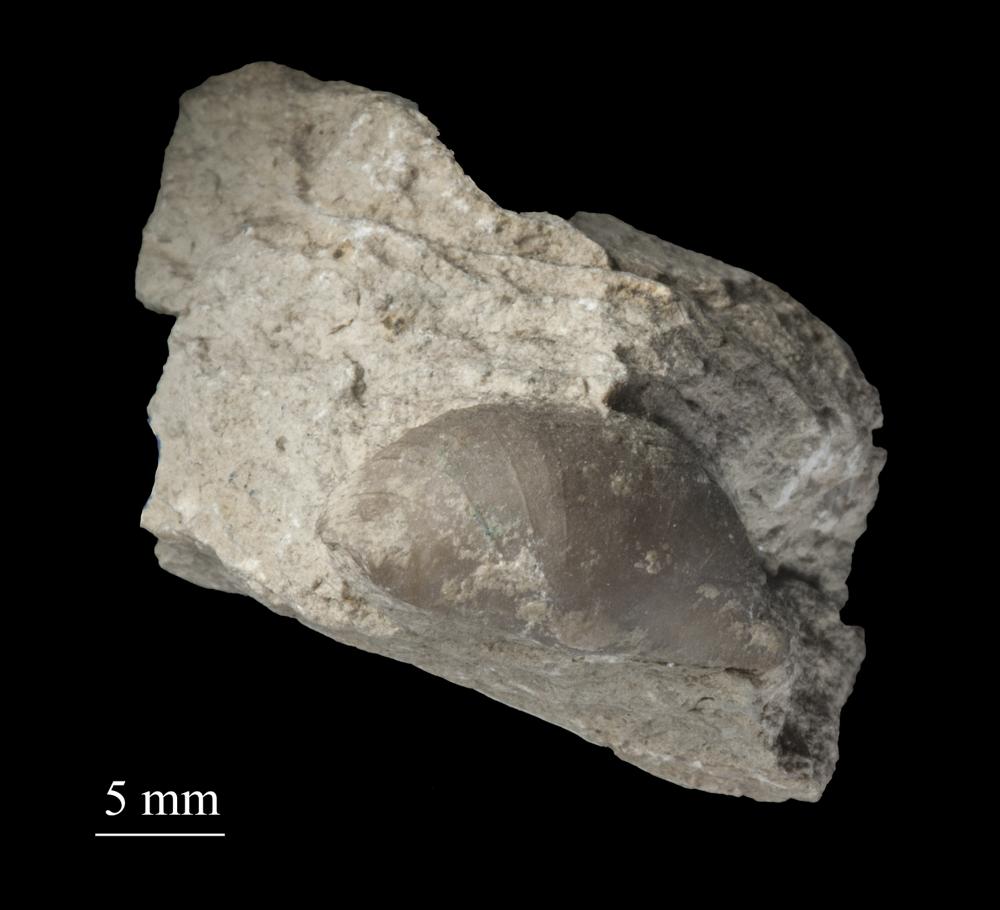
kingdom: Animalia
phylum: Brachiopoda
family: Strophomenidae
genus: Bekkerina
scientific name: Bekkerina Rafinesquina dorsata
